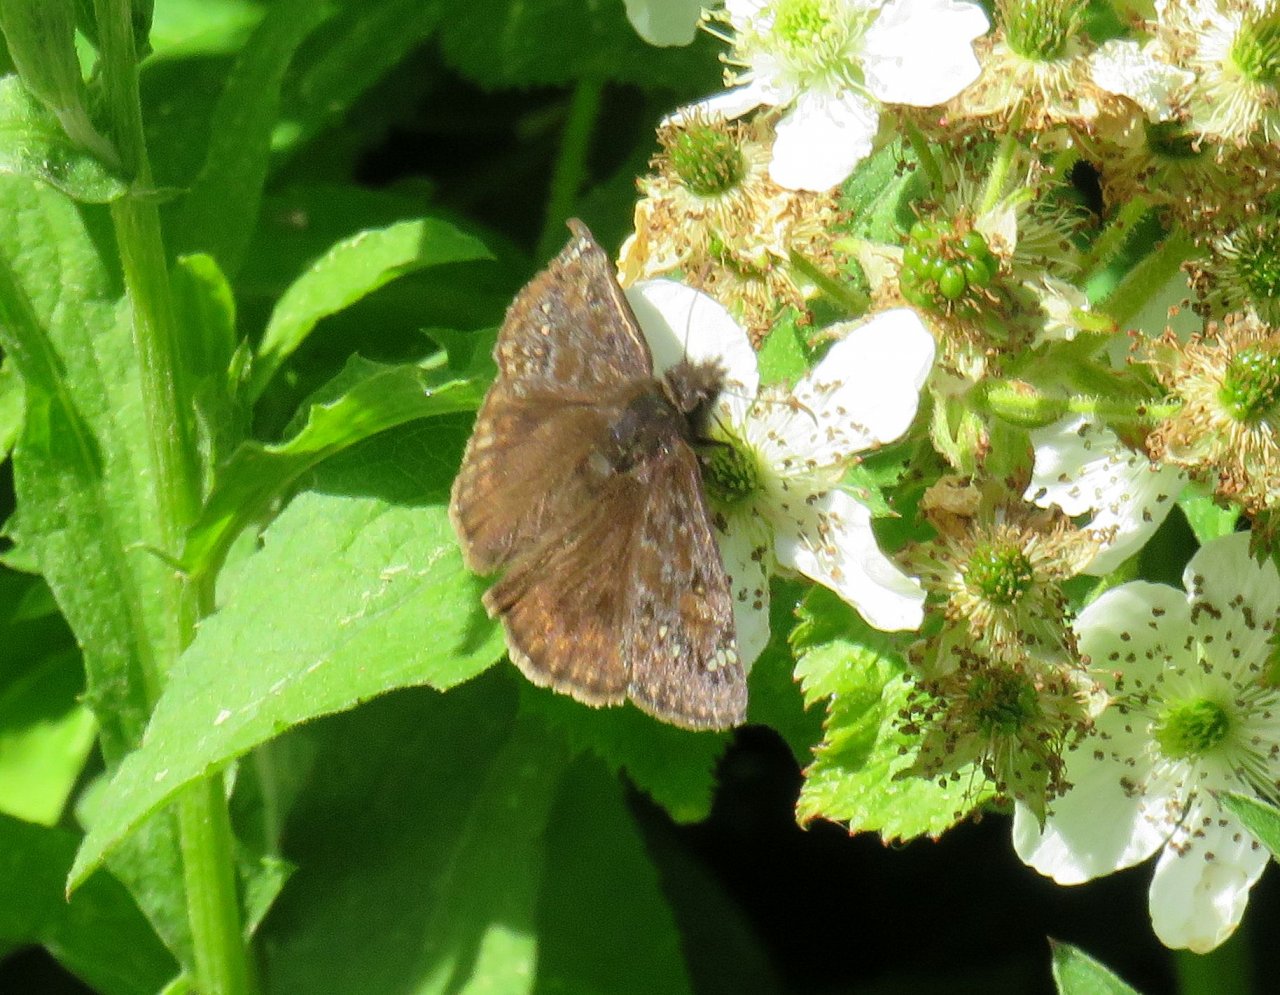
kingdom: Animalia
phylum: Arthropoda
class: Insecta
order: Lepidoptera
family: Hesperiidae
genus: Gesta
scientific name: Gesta
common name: Juvenal's Duskywing
